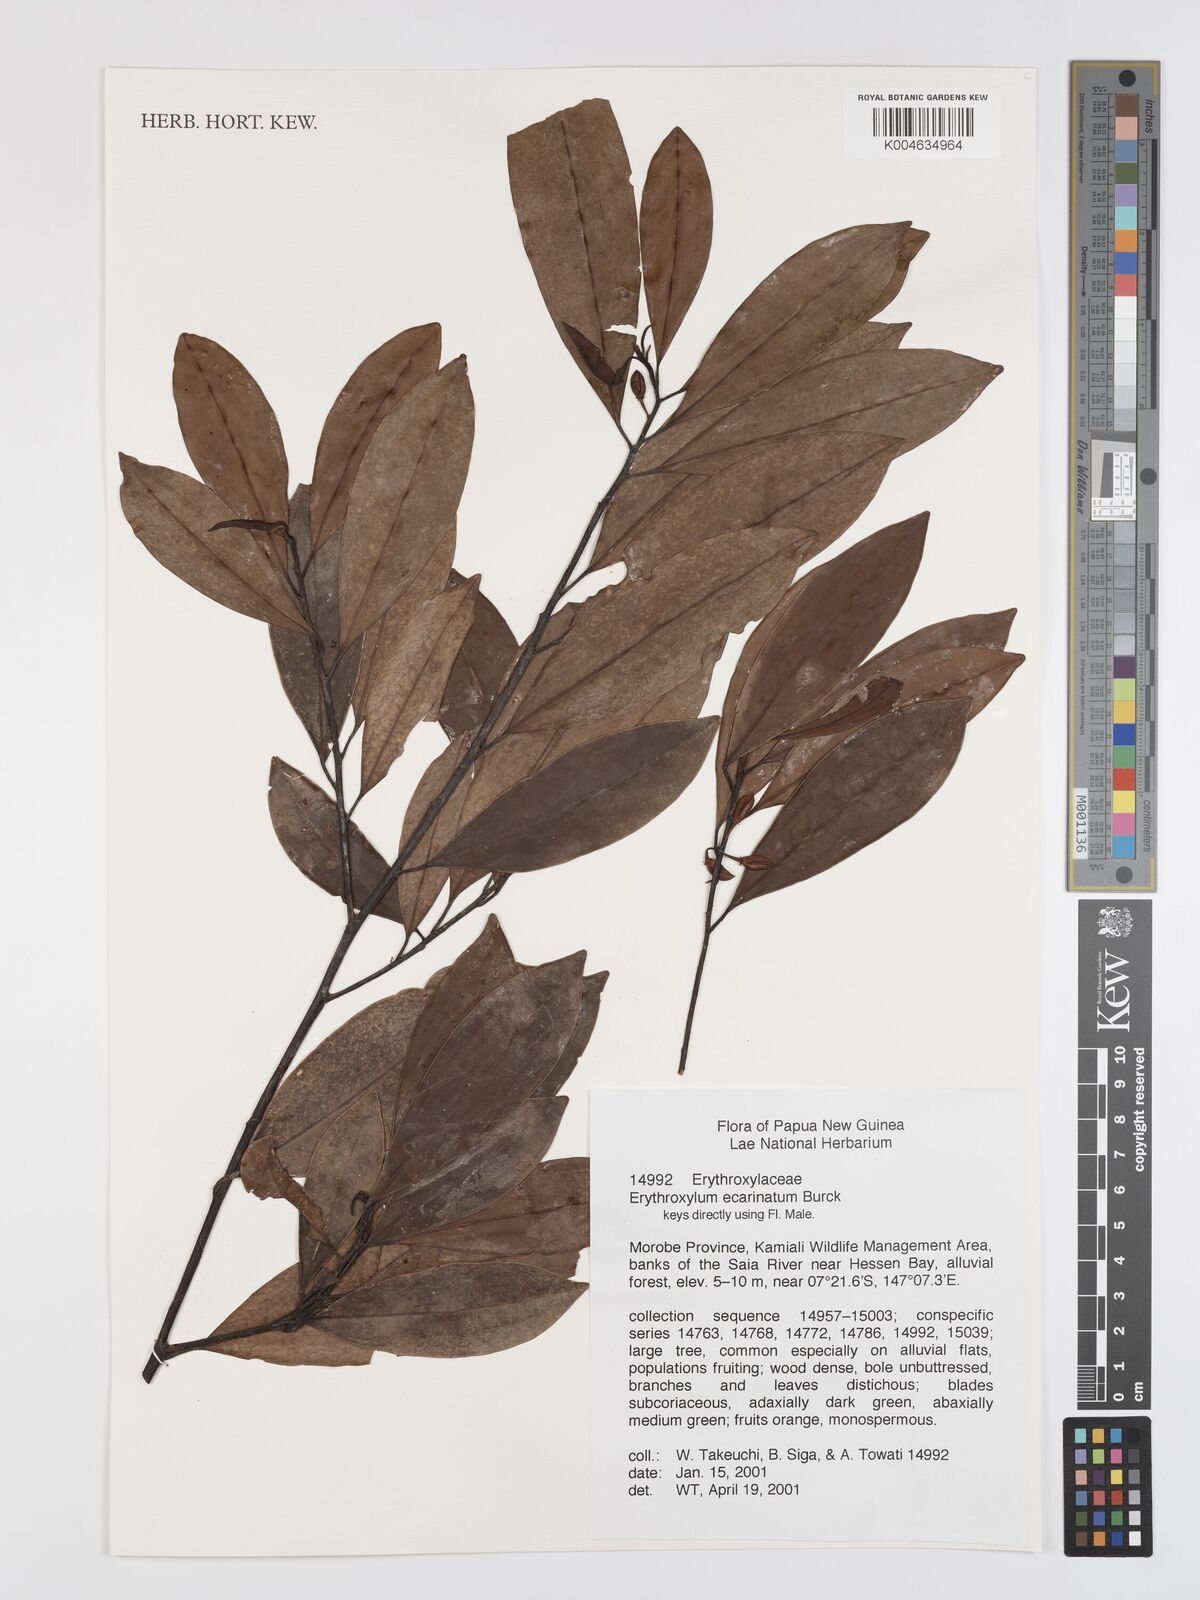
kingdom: Plantae
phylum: Tracheophyta
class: Magnoliopsida
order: Malpighiales
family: Erythroxylaceae
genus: Erythroxylum
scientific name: Erythroxylum ecarinatum
